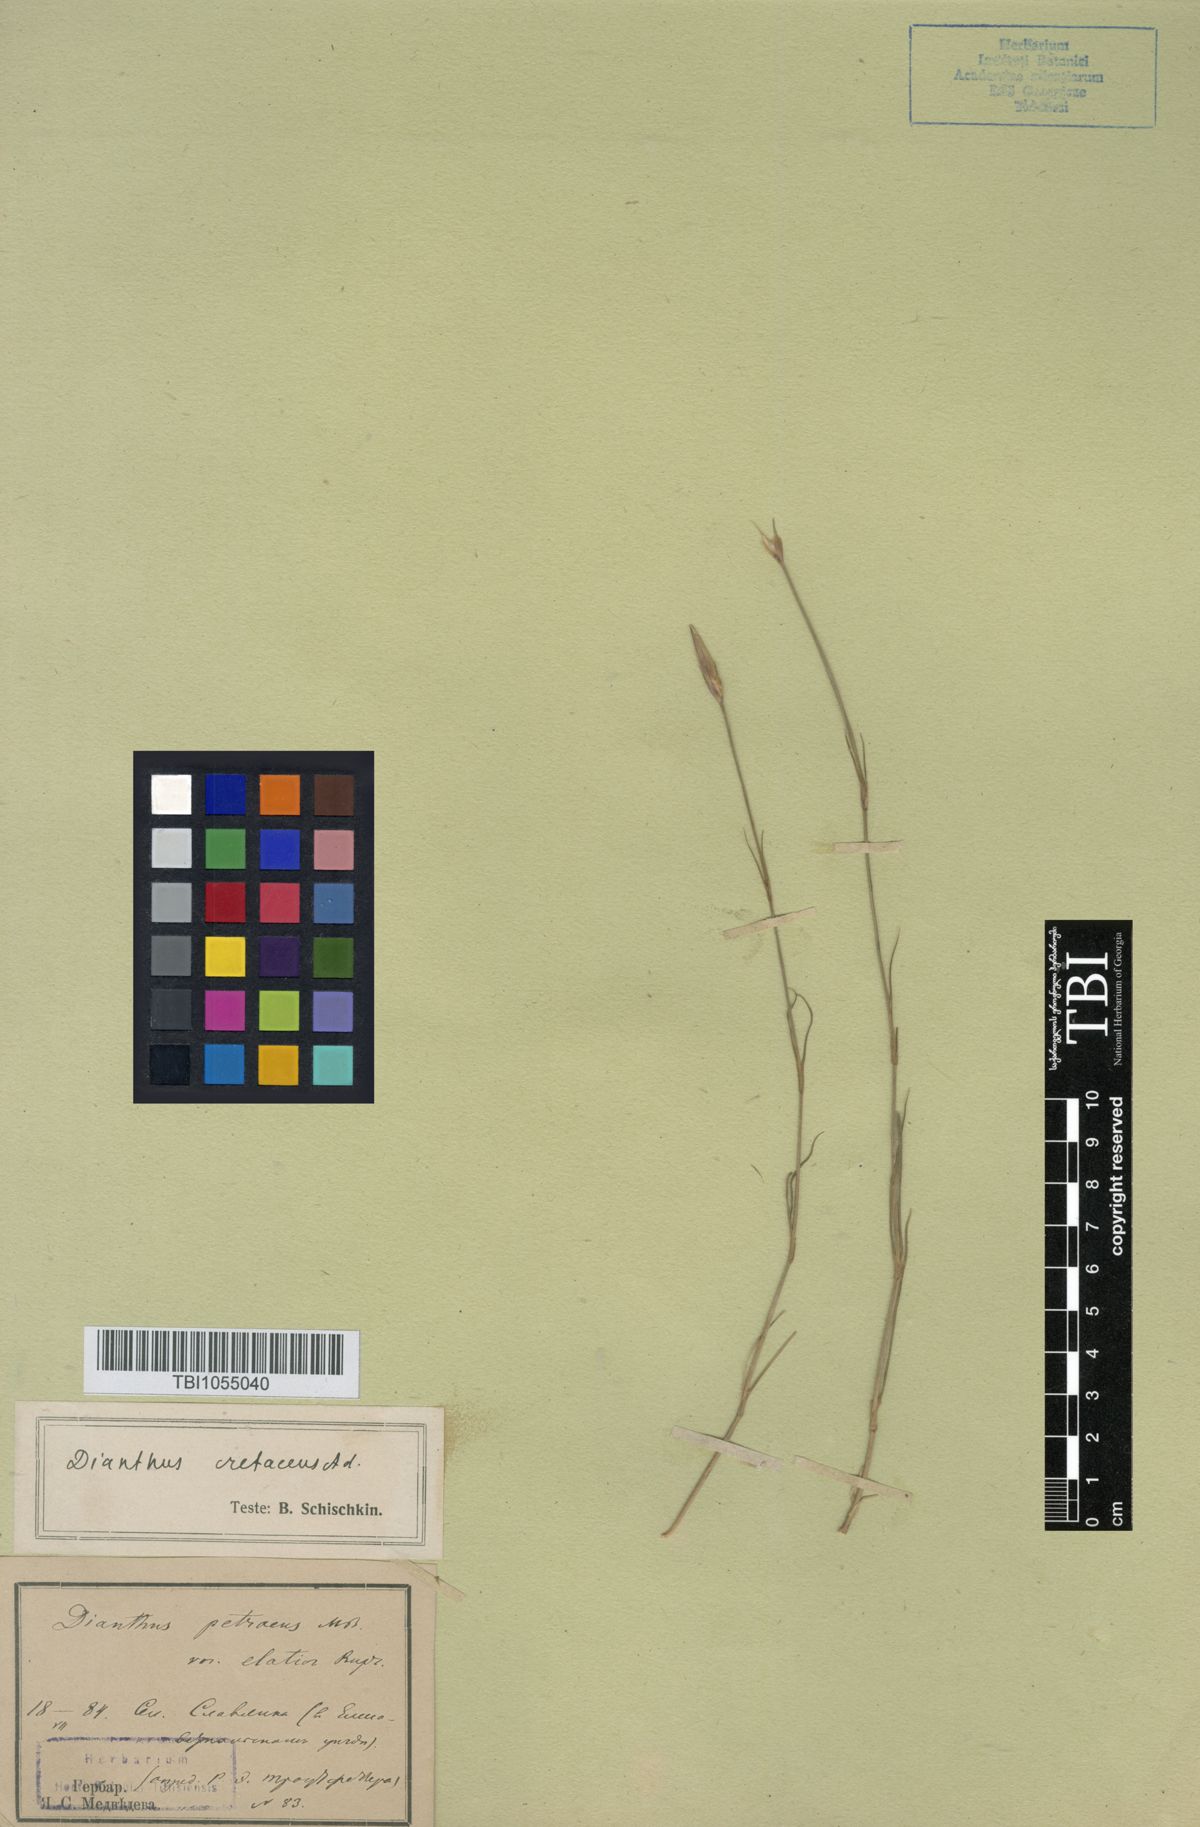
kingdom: Plantae
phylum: Tracheophyta
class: Magnoliopsida
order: Caryophyllales
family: Caryophyllaceae
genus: Dianthus
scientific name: Dianthus cretaceus
